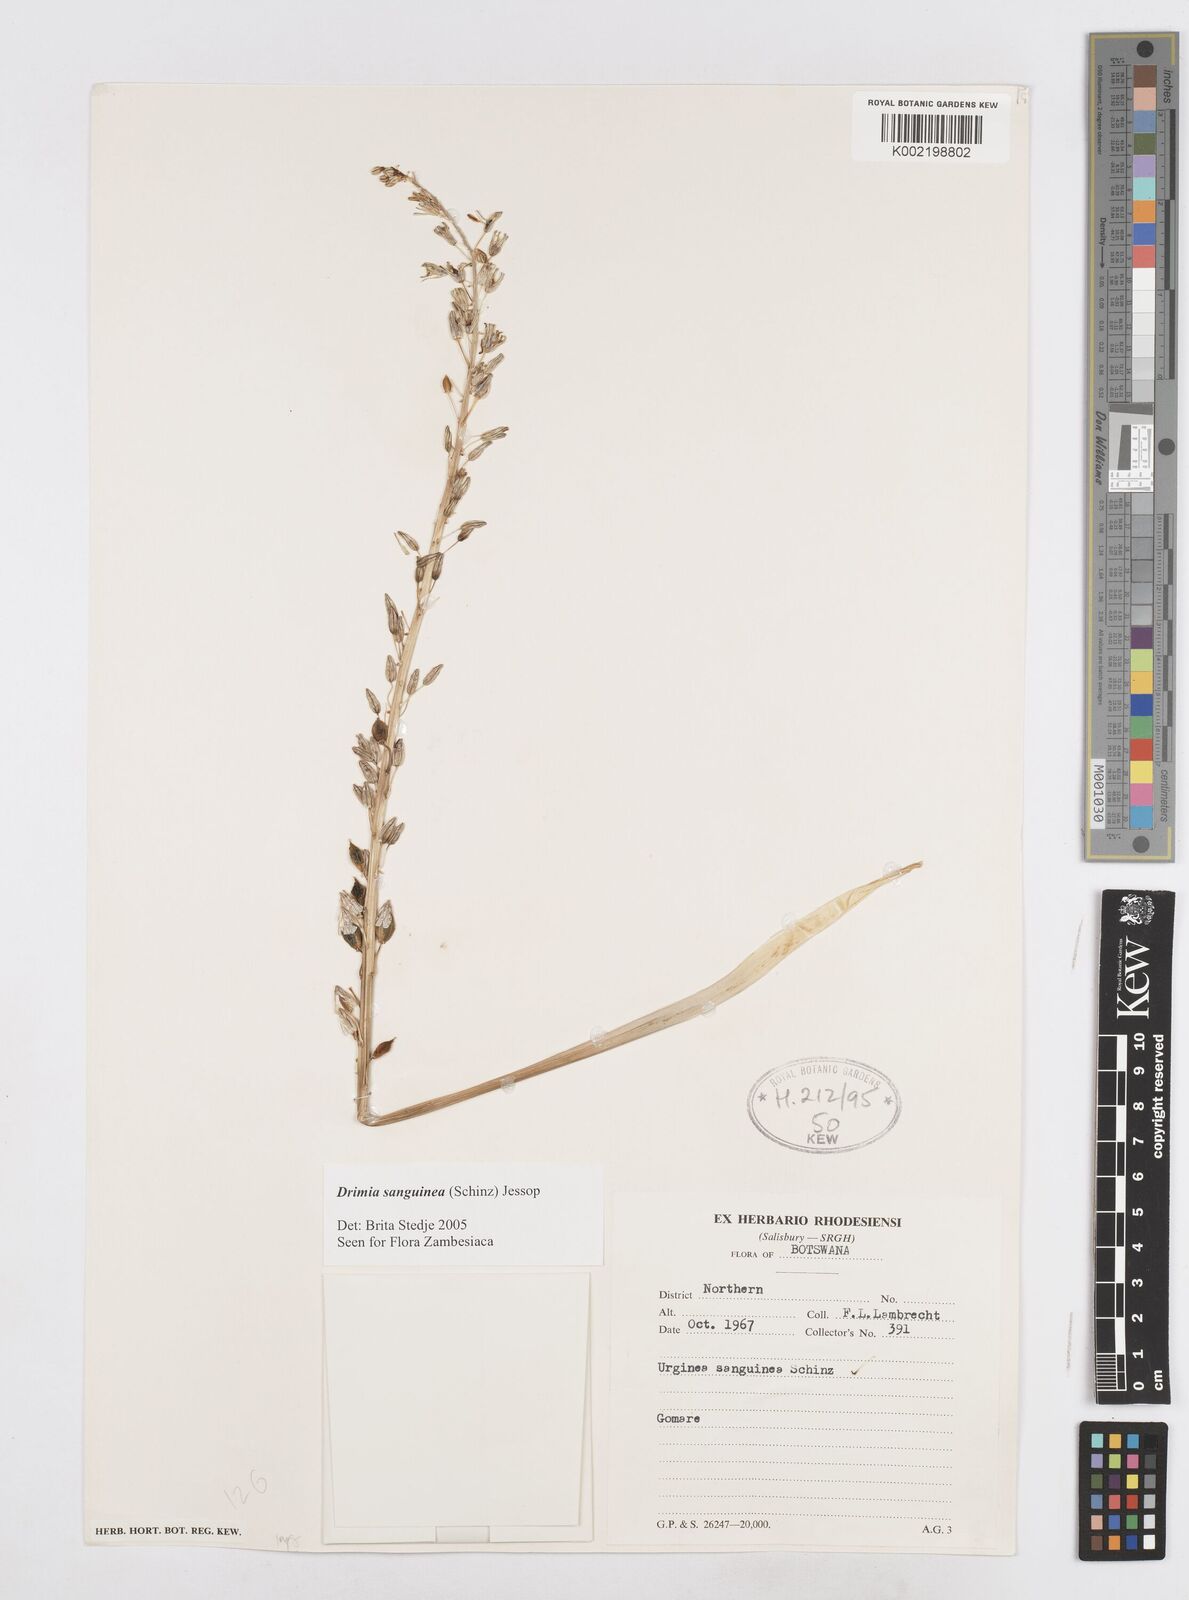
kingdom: Plantae
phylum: Tracheophyta
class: Liliopsida
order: Asparagales
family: Asparagaceae
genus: Drimia
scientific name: Drimia sanguinea
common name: Transvaal slangkop
